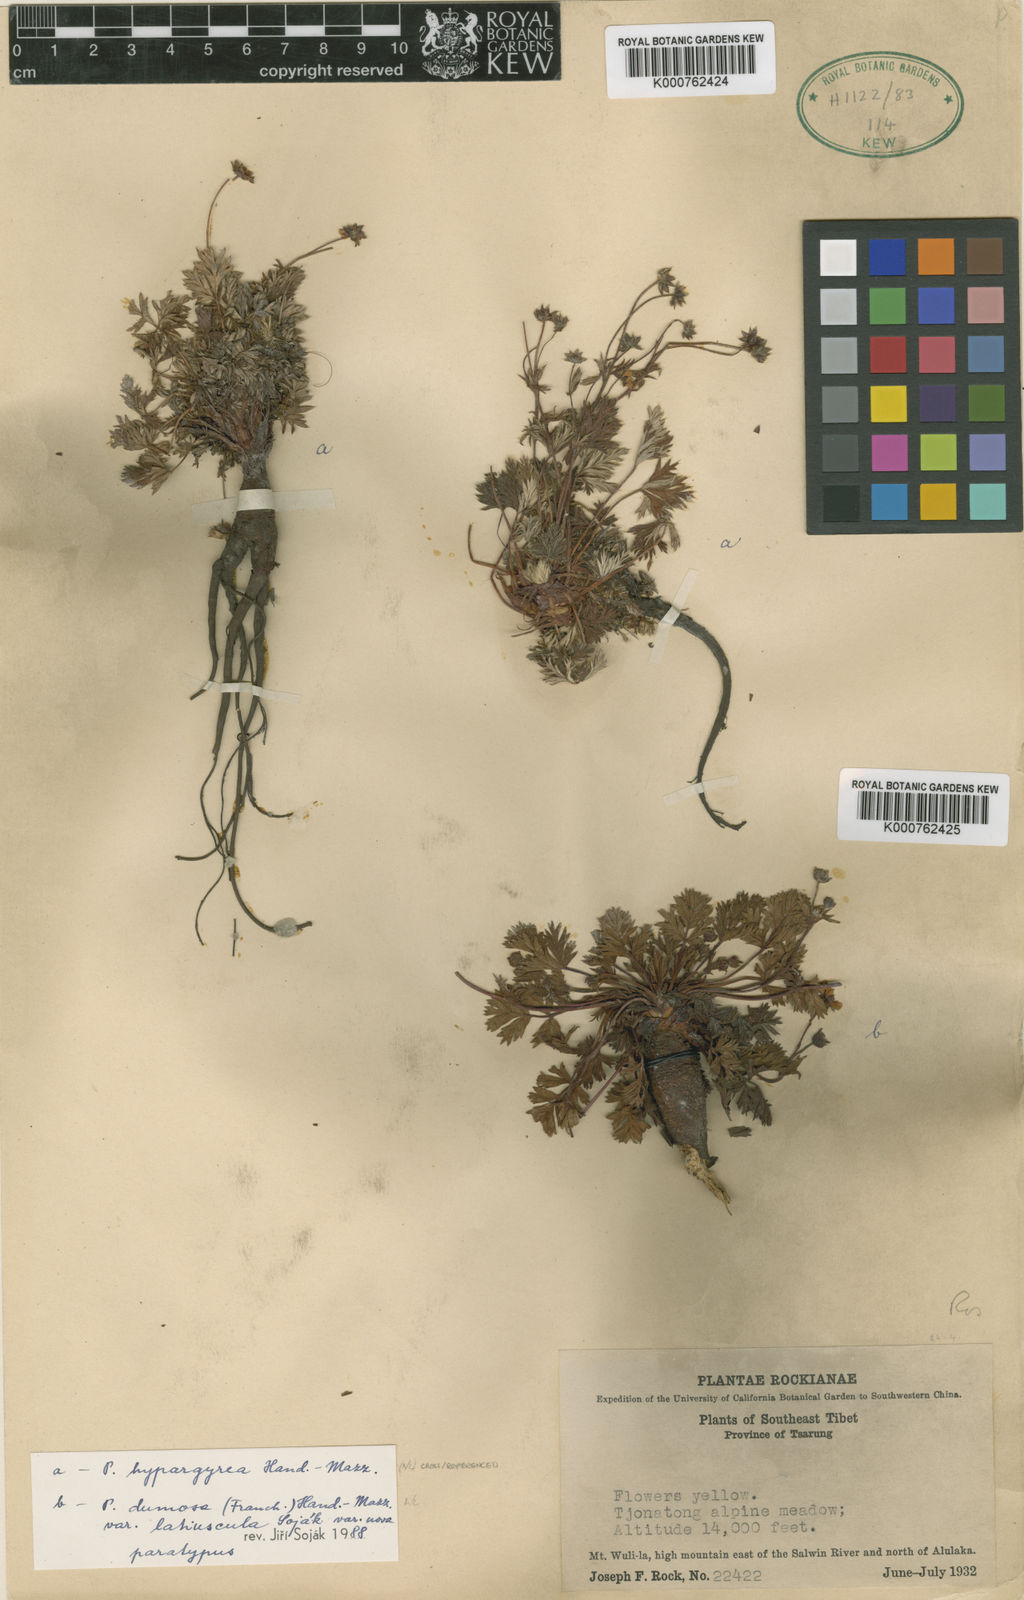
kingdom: Plantae
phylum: Tracheophyta
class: Magnoliopsida
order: Rosales
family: Rosaceae
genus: Potentilla
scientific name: Potentilla coriandrifolia
